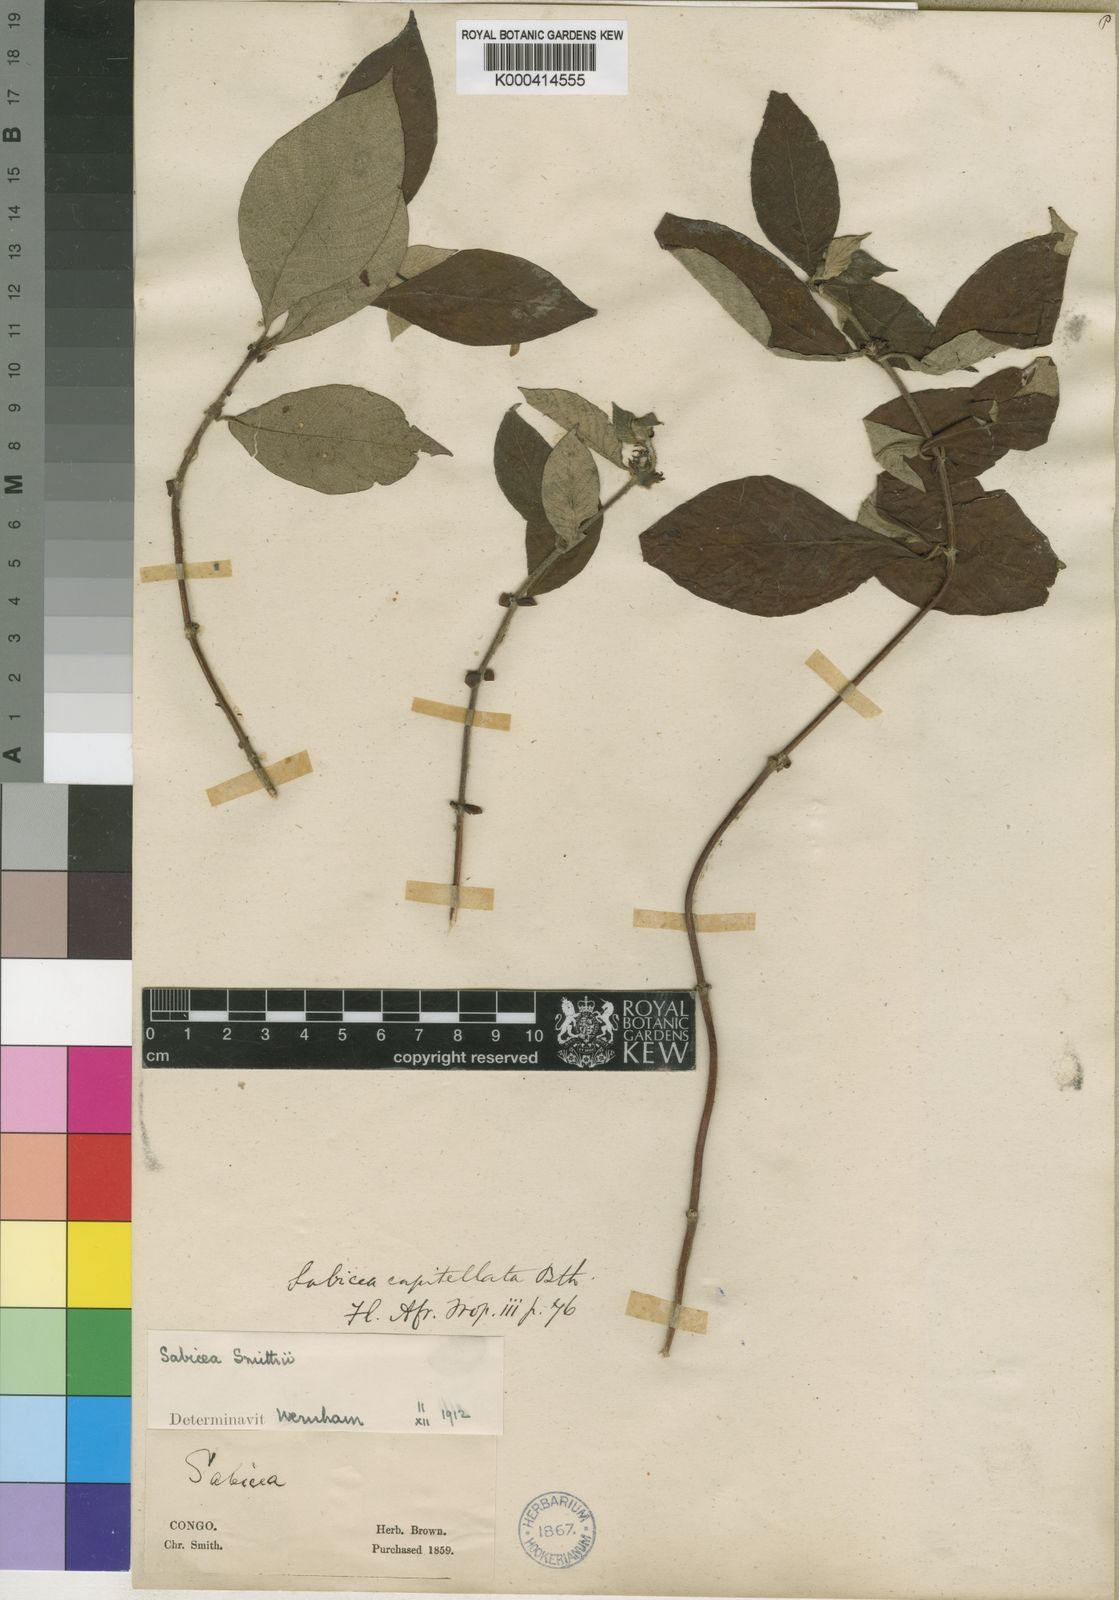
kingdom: Plantae
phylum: Tracheophyta
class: Magnoliopsida
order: Gentianales
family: Rubiaceae
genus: Sabicea
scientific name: Sabicea smithii
